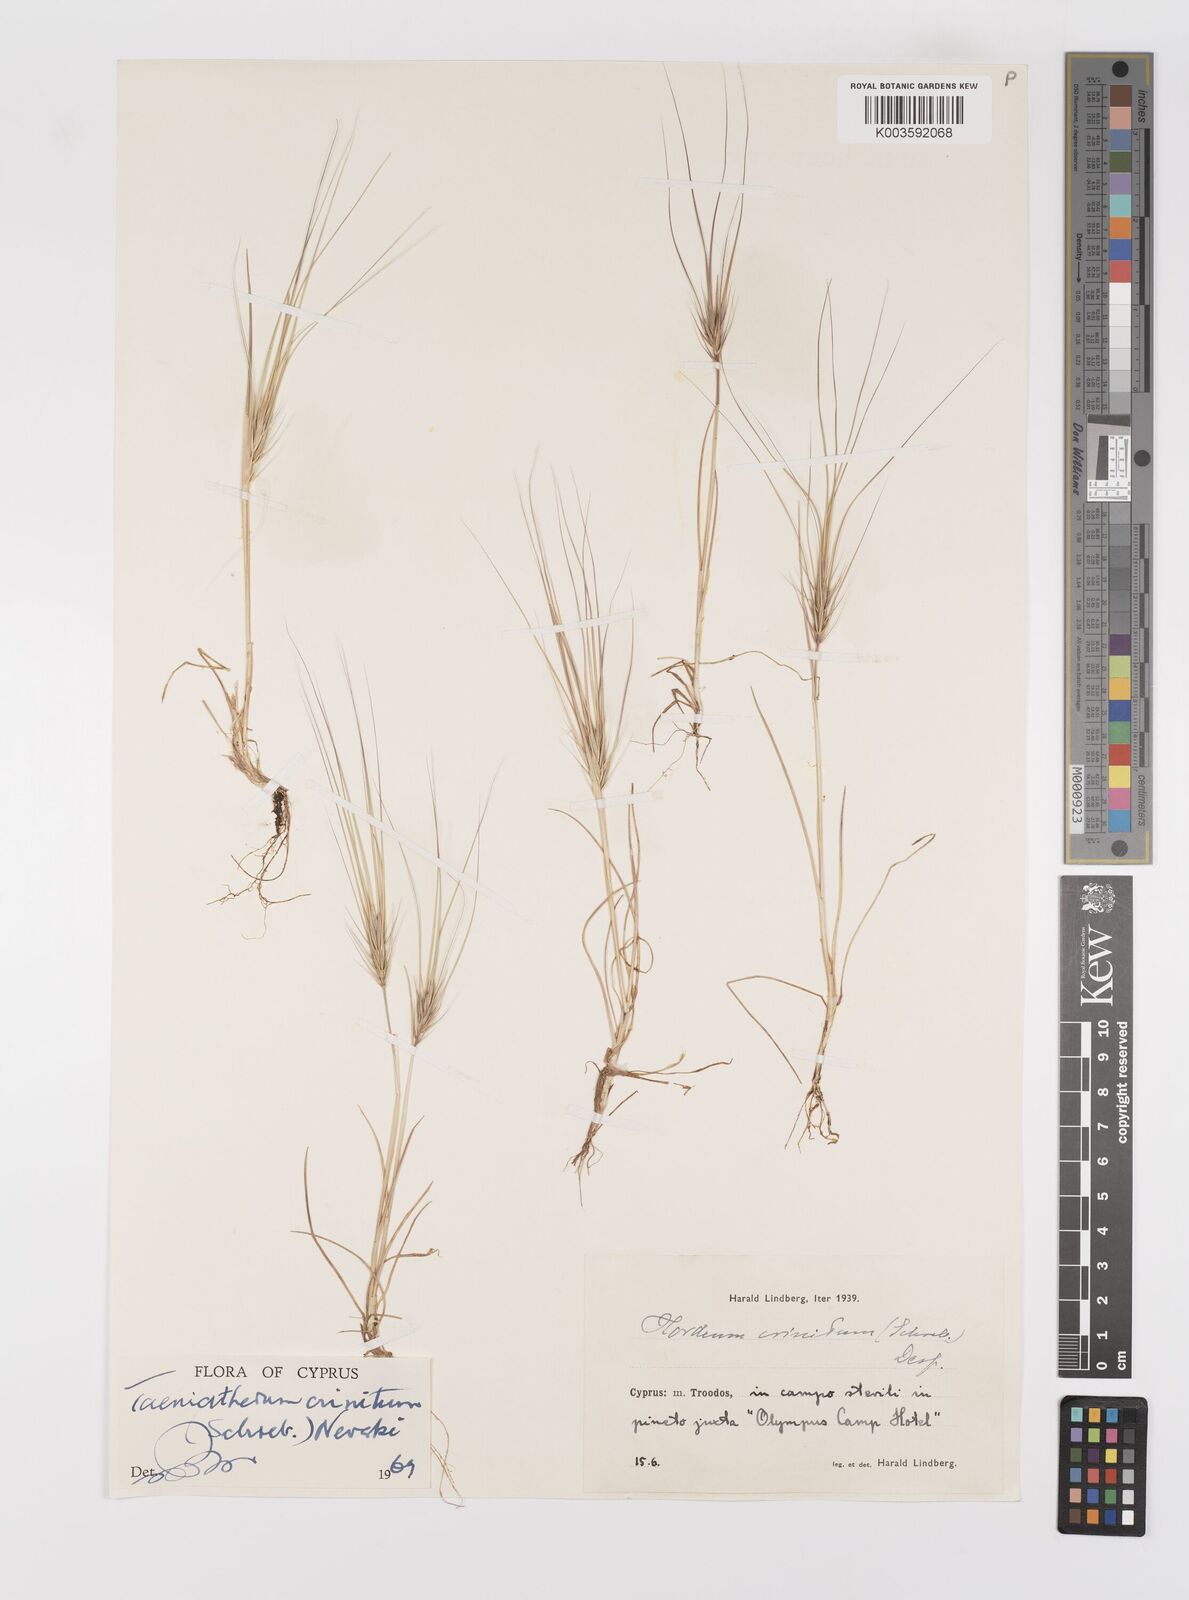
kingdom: Plantae
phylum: Tracheophyta
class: Liliopsida
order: Poales
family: Poaceae
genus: Taeniatherum
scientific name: Taeniatherum caput-medusae
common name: Medusahead
